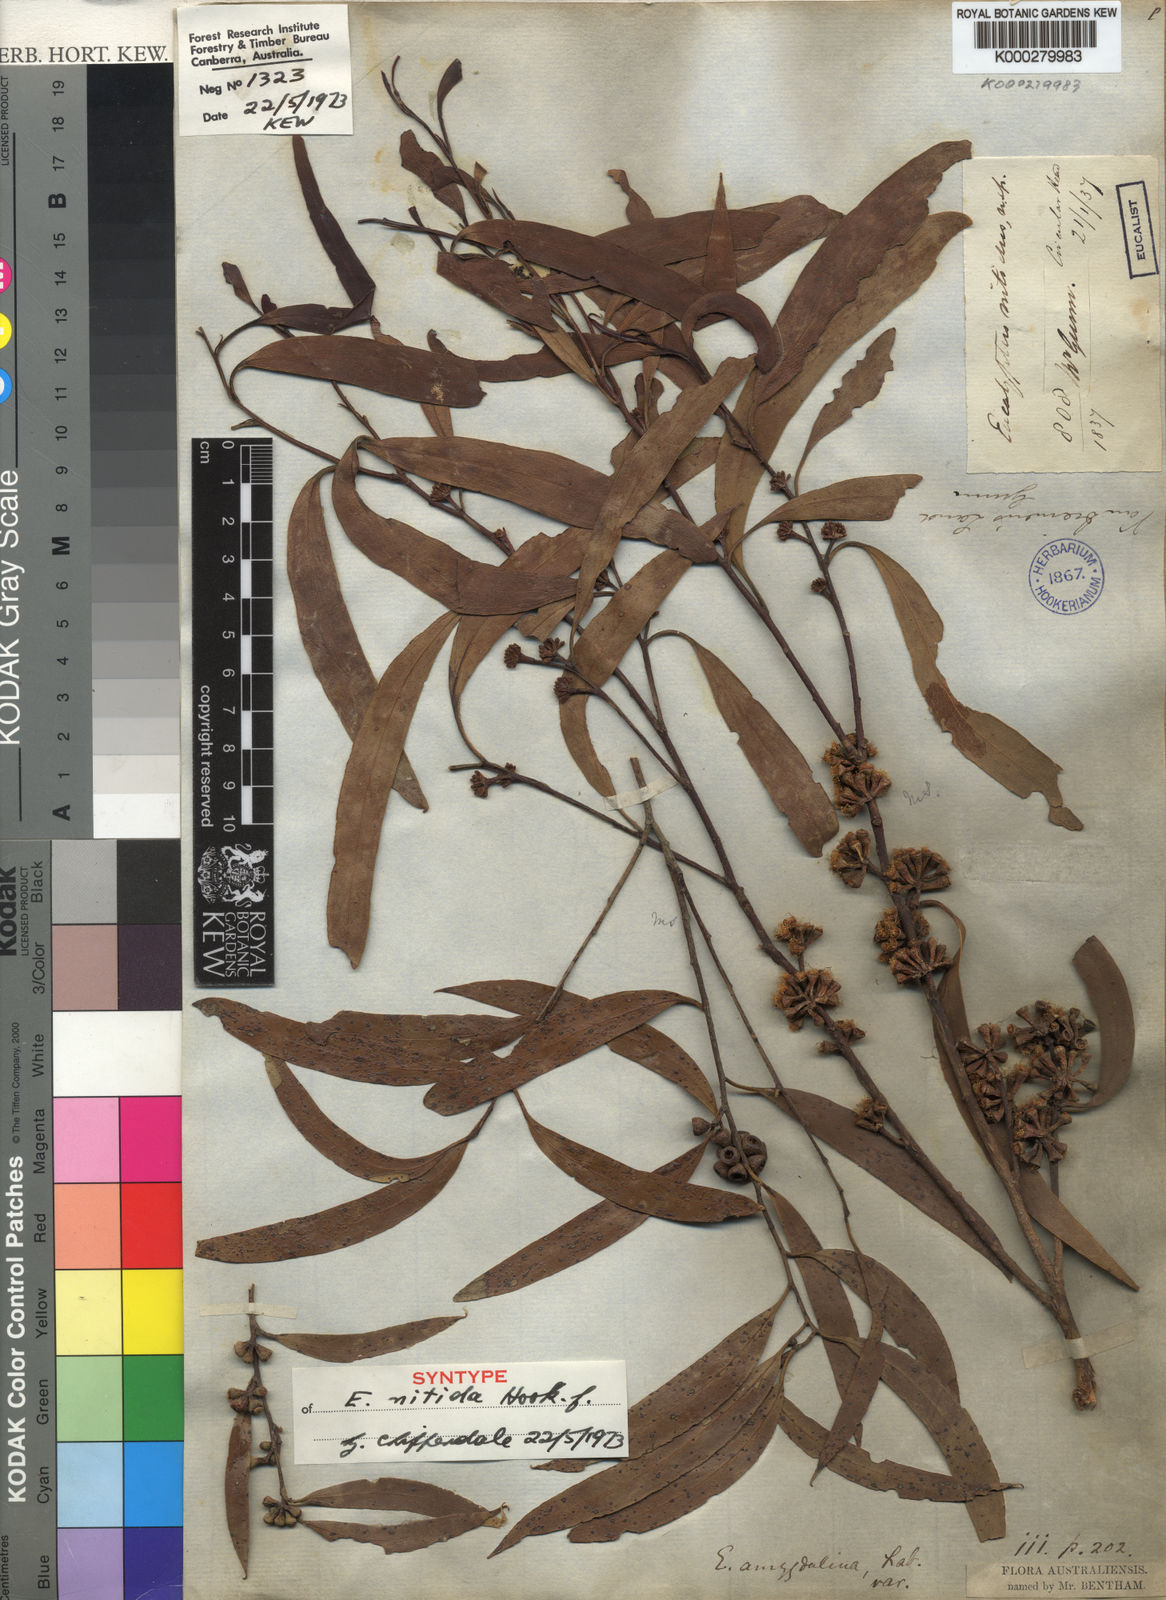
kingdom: Plantae
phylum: Tracheophyta
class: Magnoliopsida
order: Myrtales
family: Myrtaceae
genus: Eucalyptus
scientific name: Eucalyptus nitida
